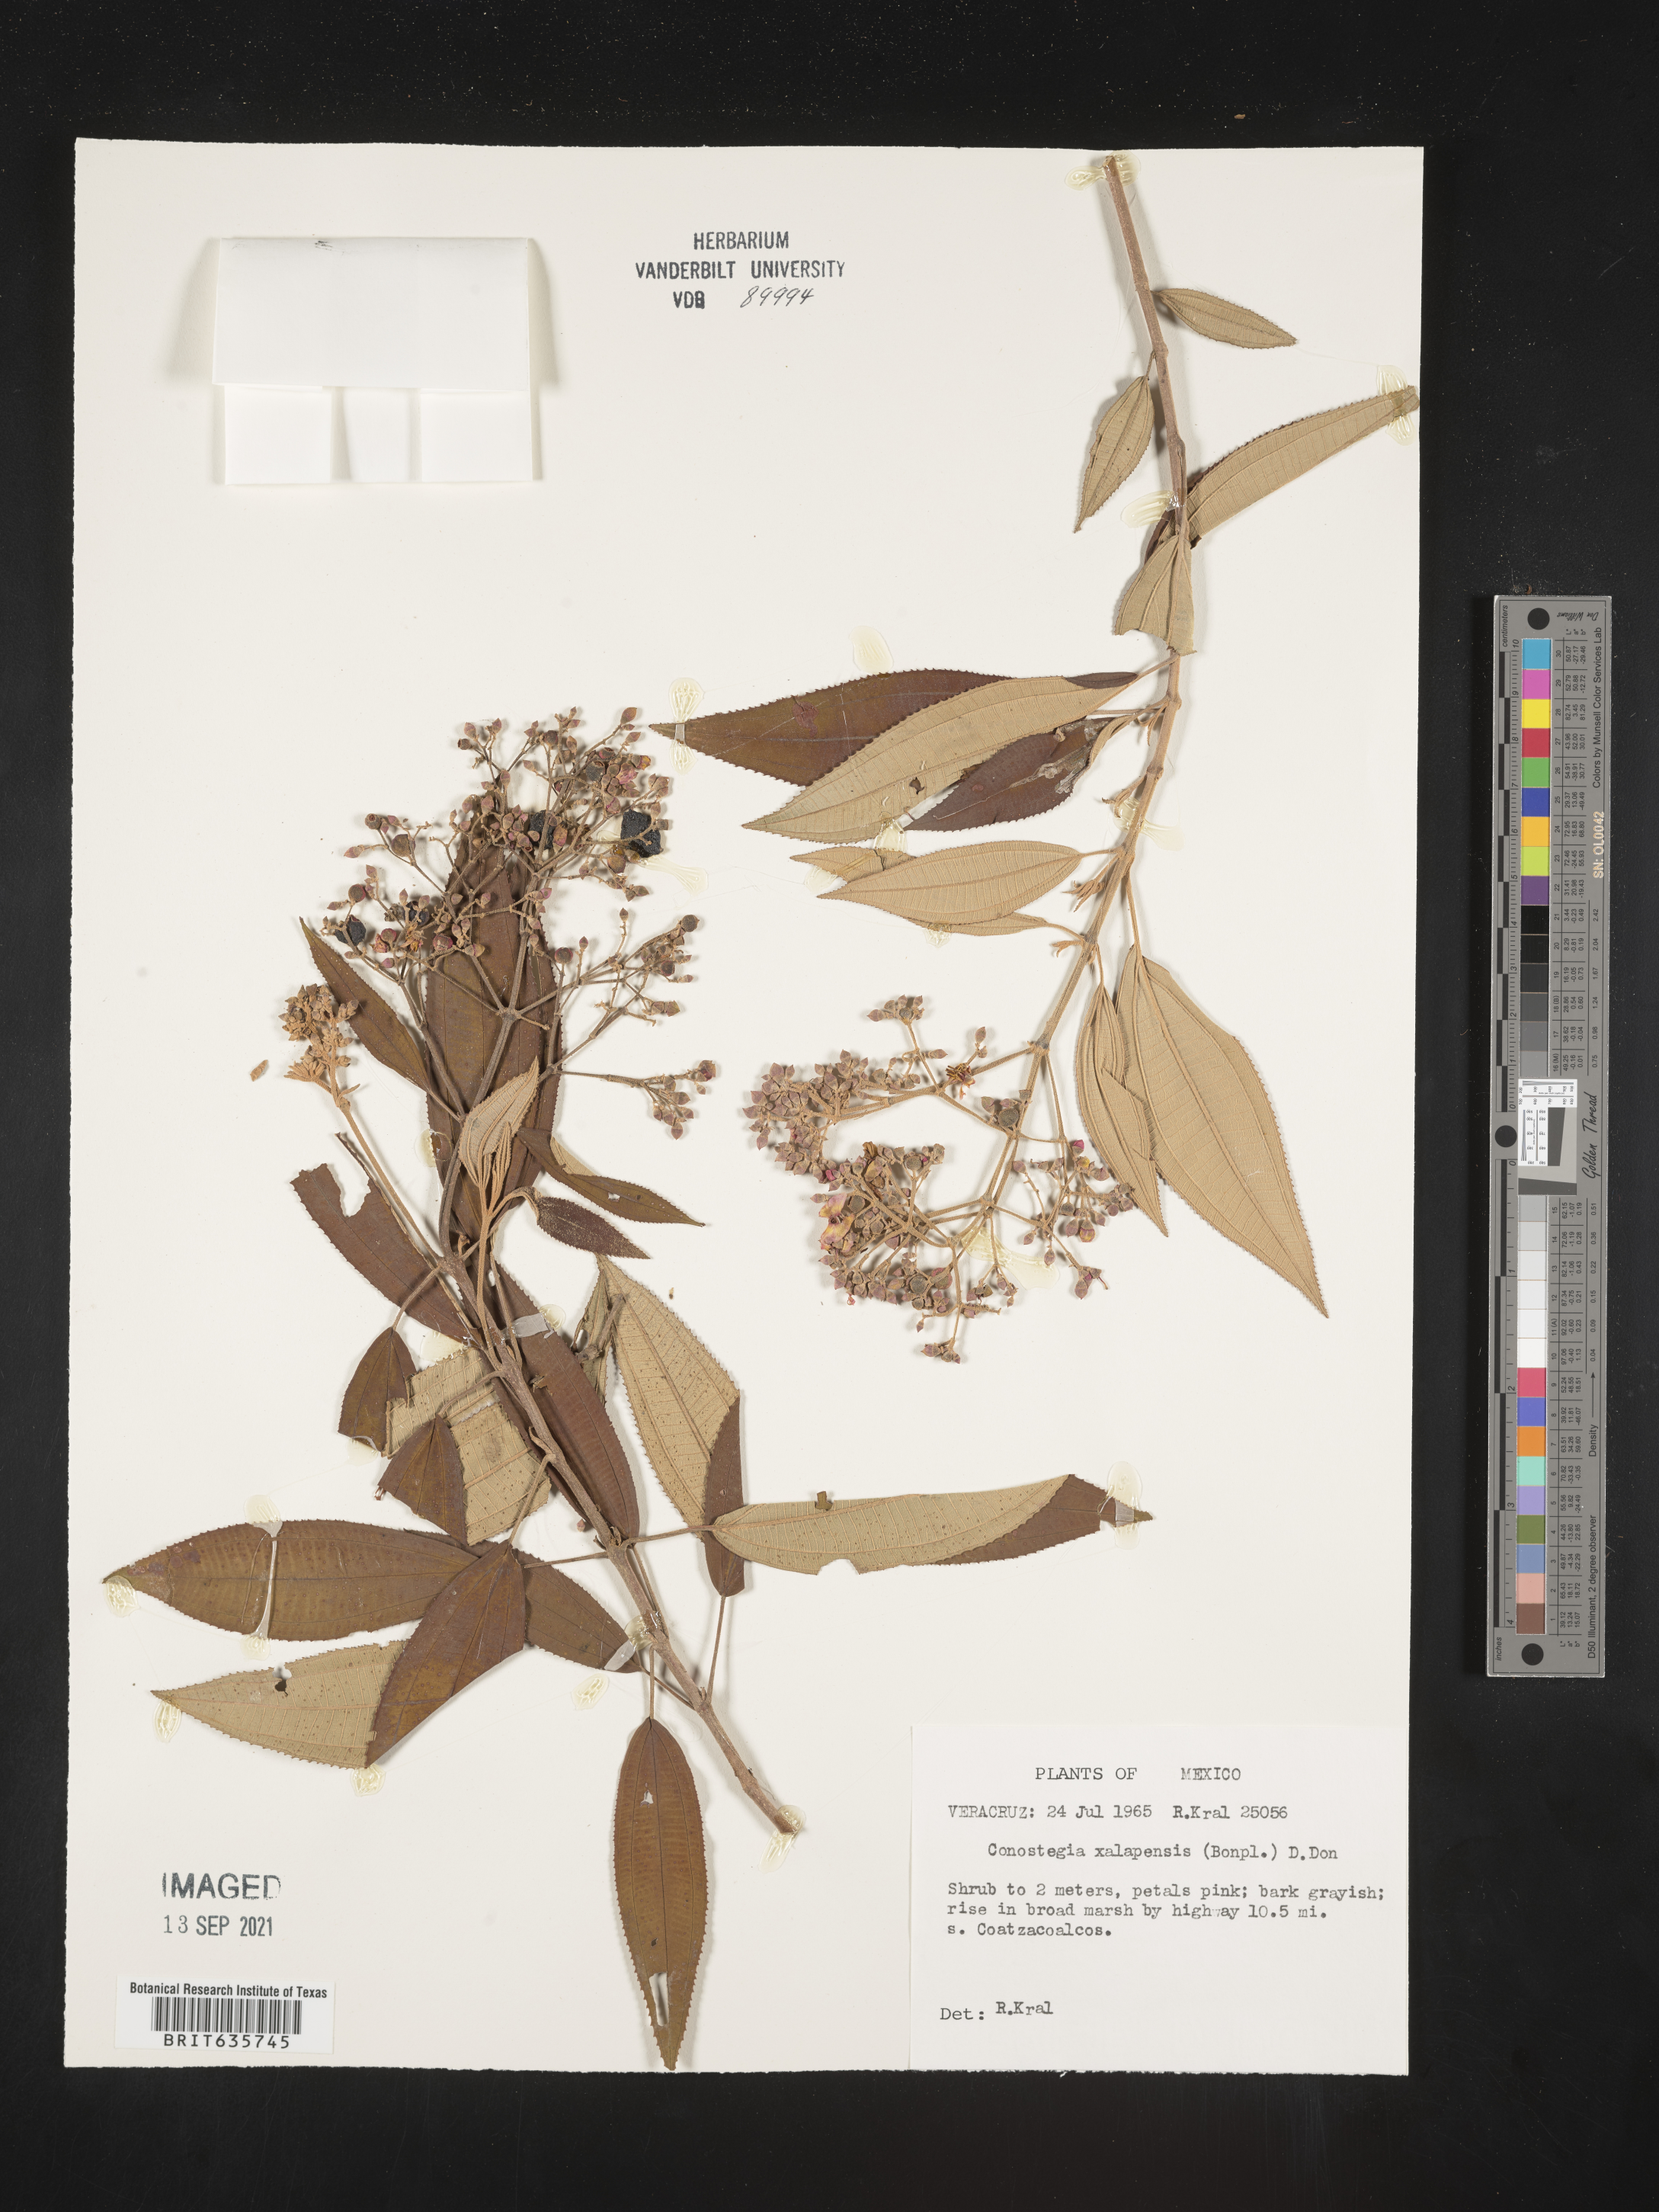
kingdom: Plantae
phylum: Tracheophyta
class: Magnoliopsida
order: Myrtales
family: Melastomataceae
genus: Miconia
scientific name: Miconia
